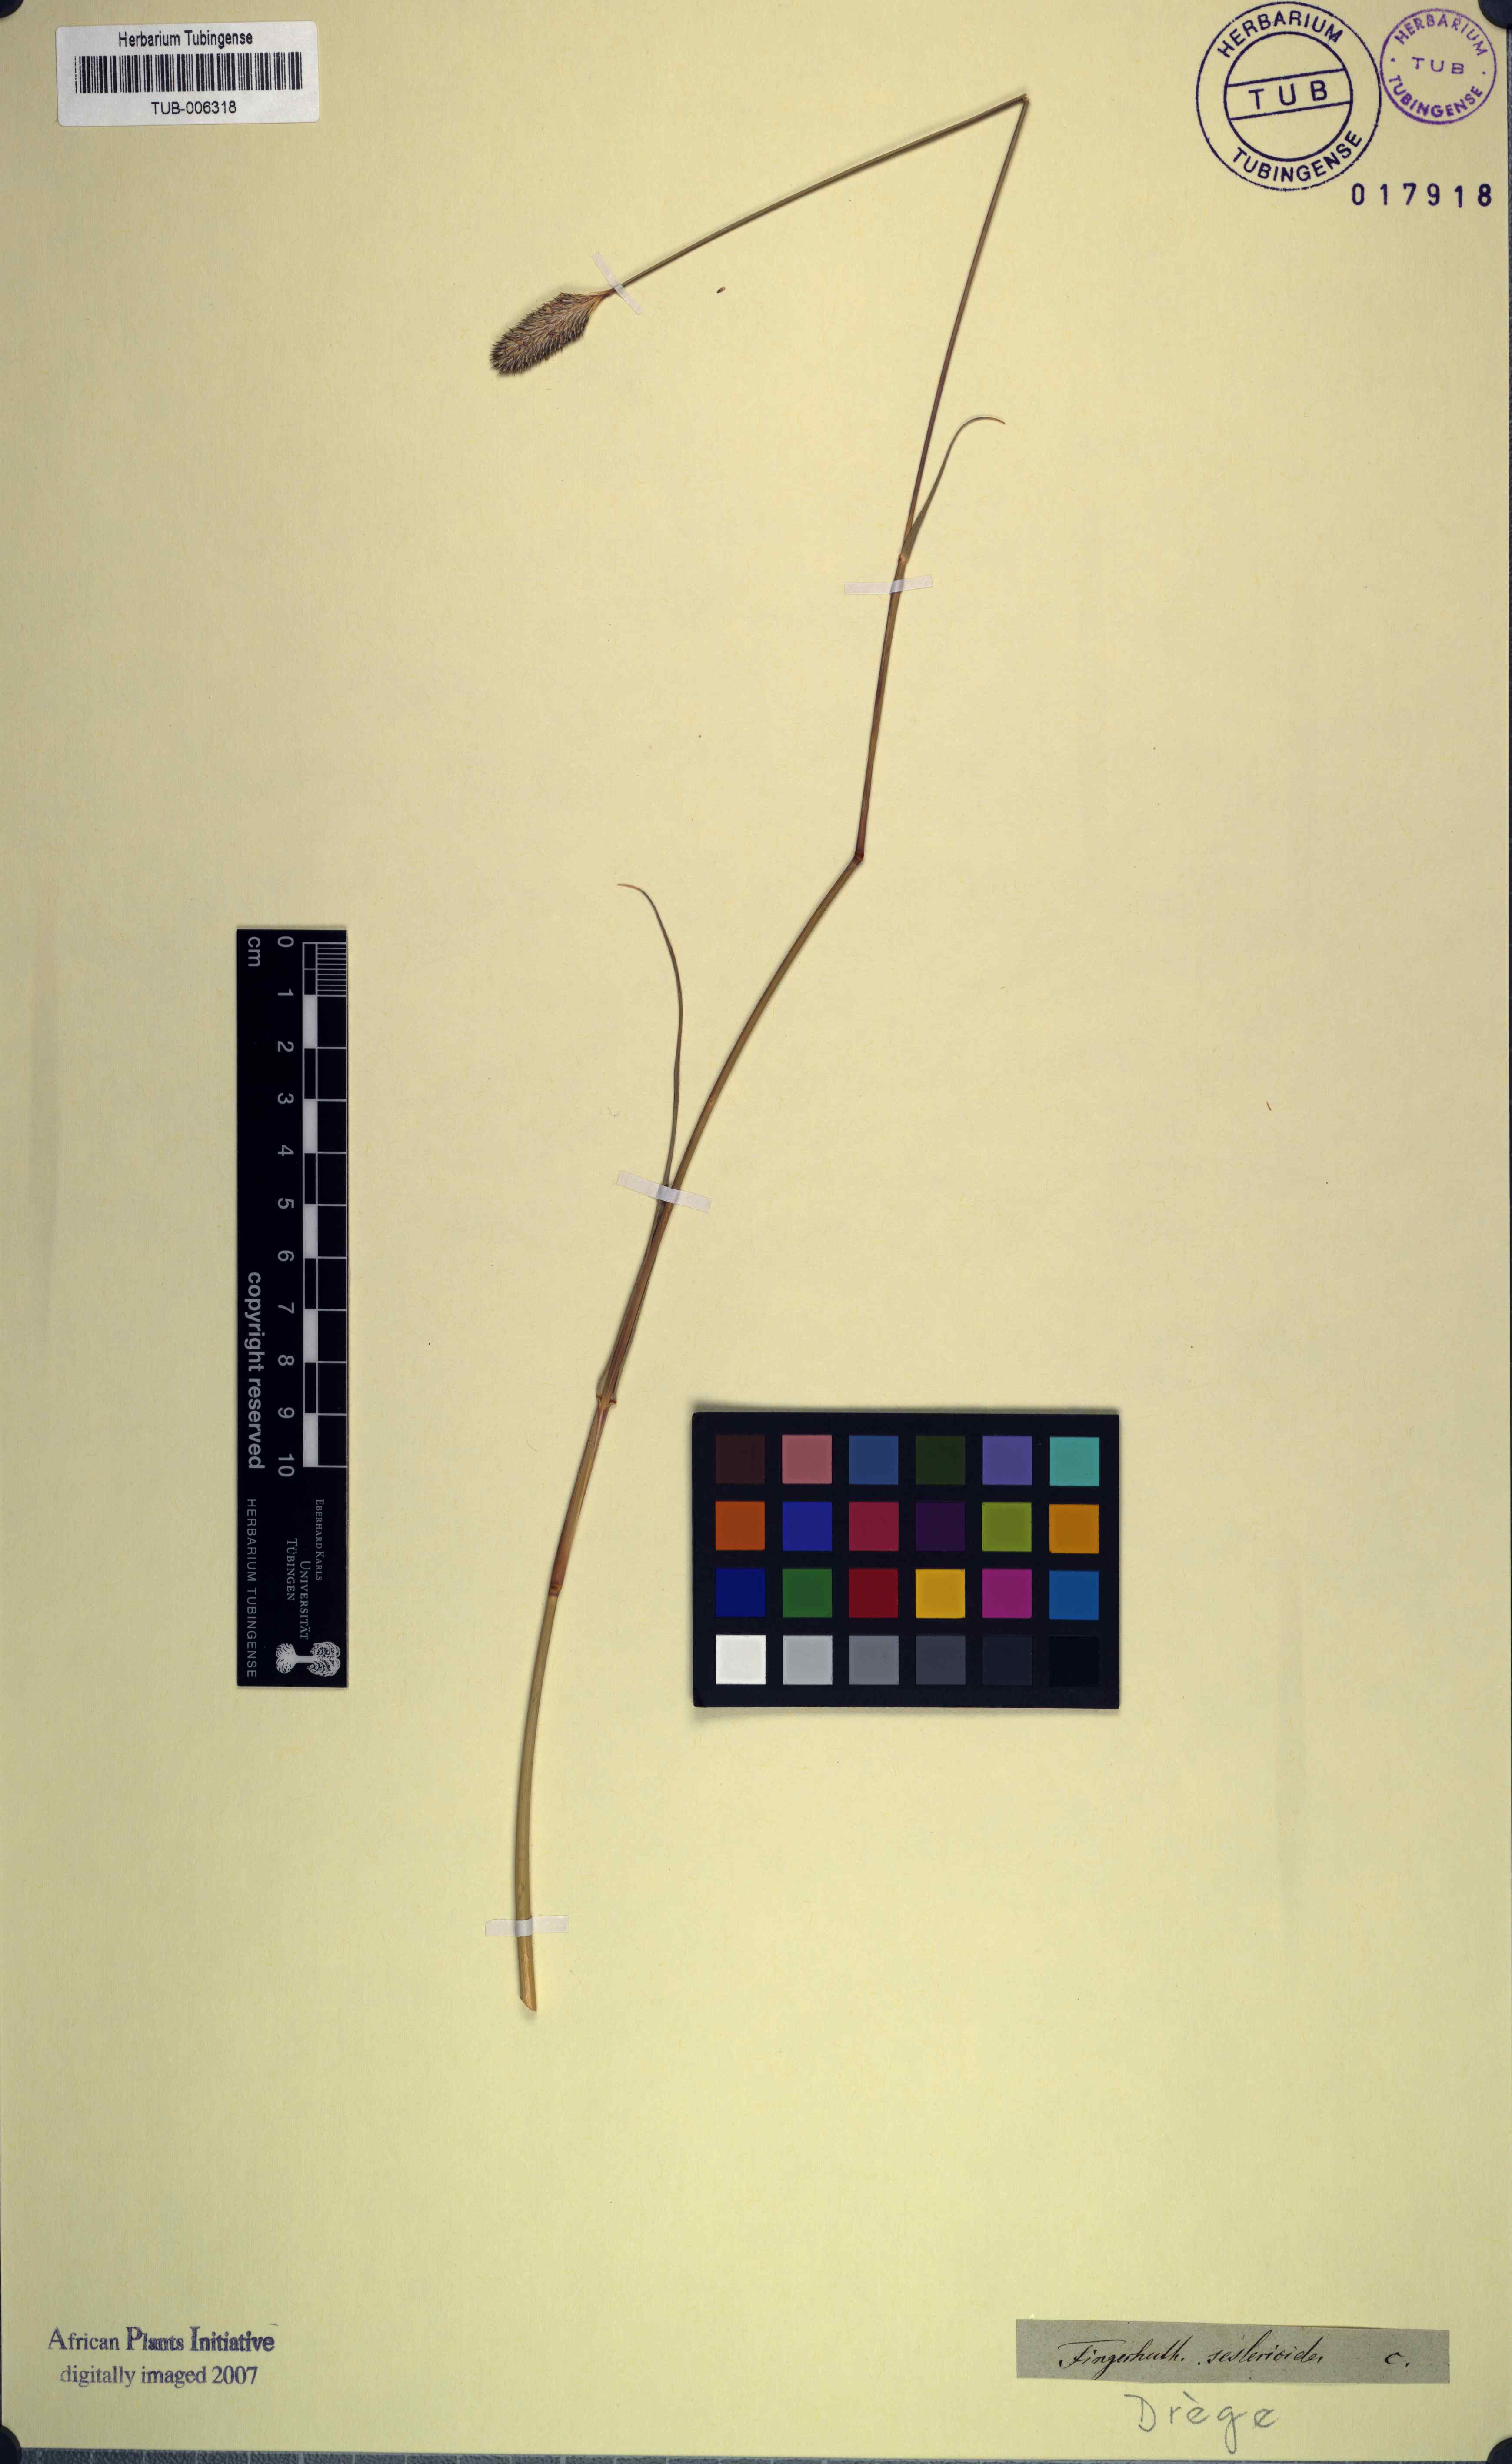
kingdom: Plantae
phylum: Tracheophyta
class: Liliopsida
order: Poales
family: Poaceae
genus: Fingerhuthia
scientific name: Fingerhuthia sesleriiformis
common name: Thimble grass
